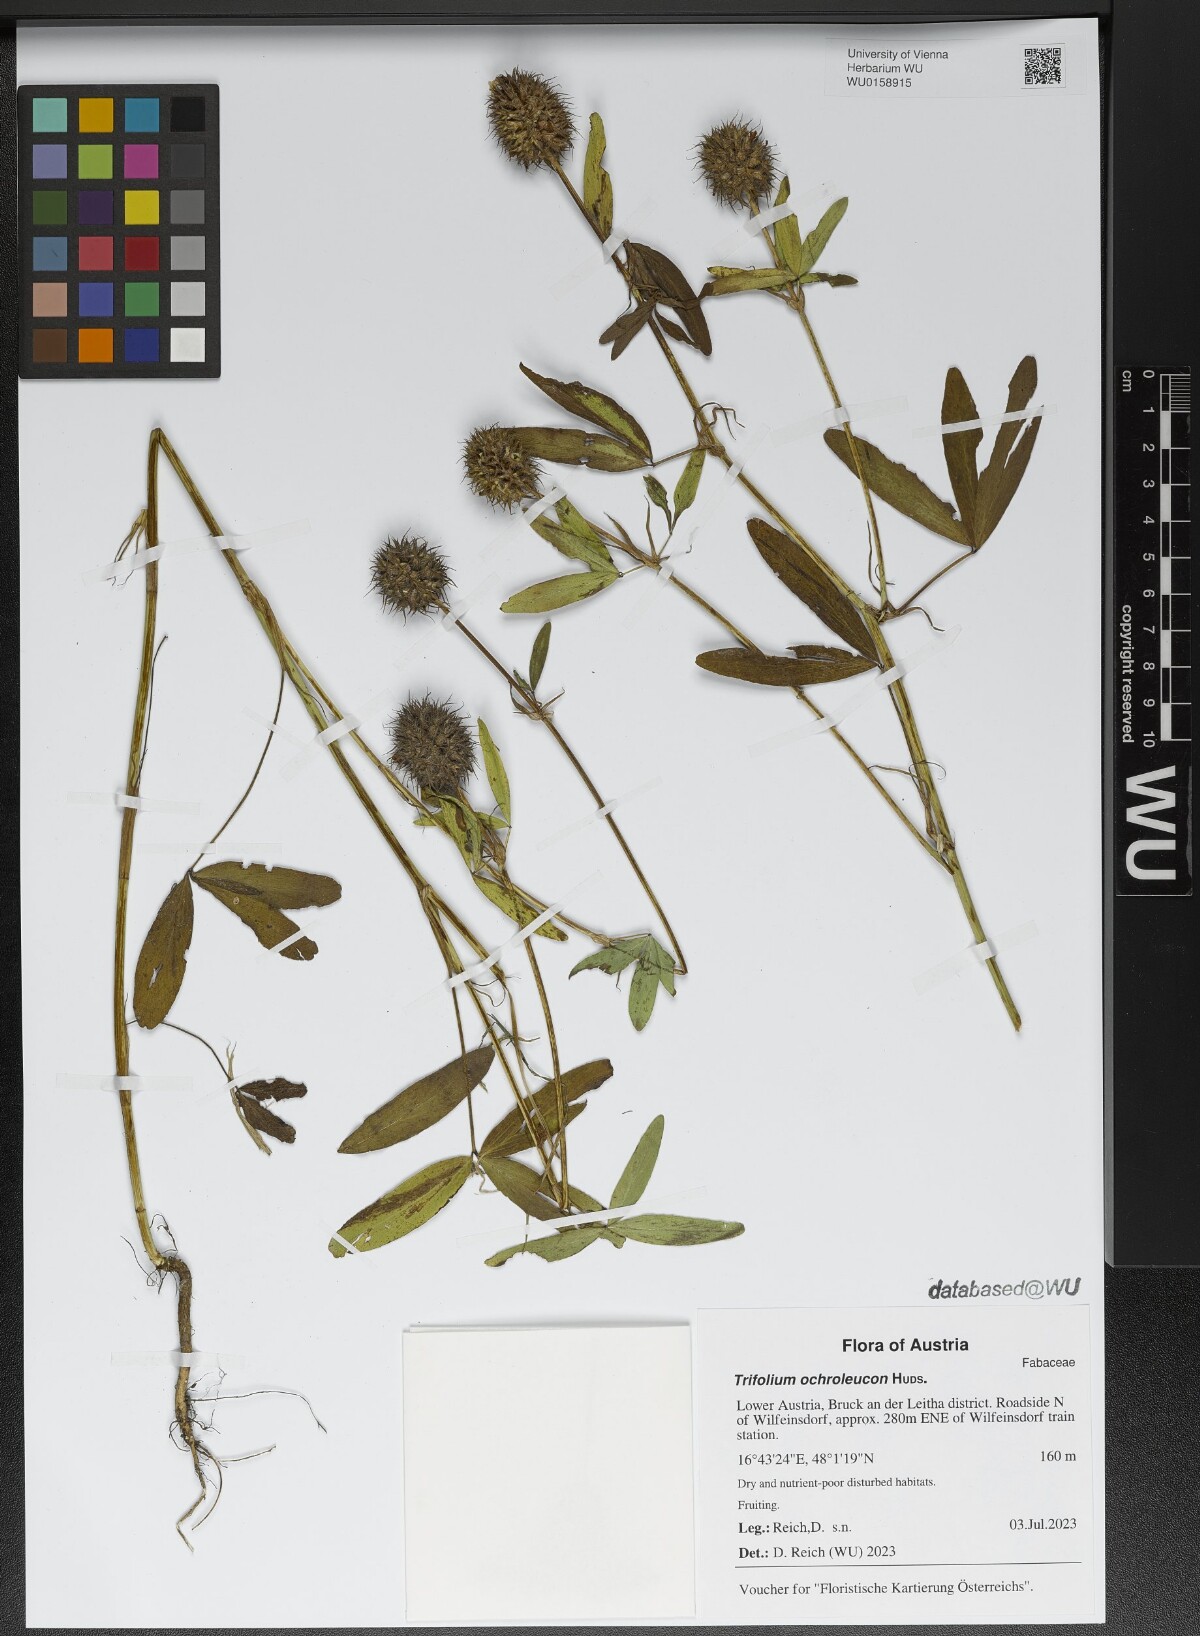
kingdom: Plantae
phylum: Tracheophyta
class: Magnoliopsida
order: Fabales
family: Fabaceae
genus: Trifolium
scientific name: Trifolium ochroleucon
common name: Sulphur clover
